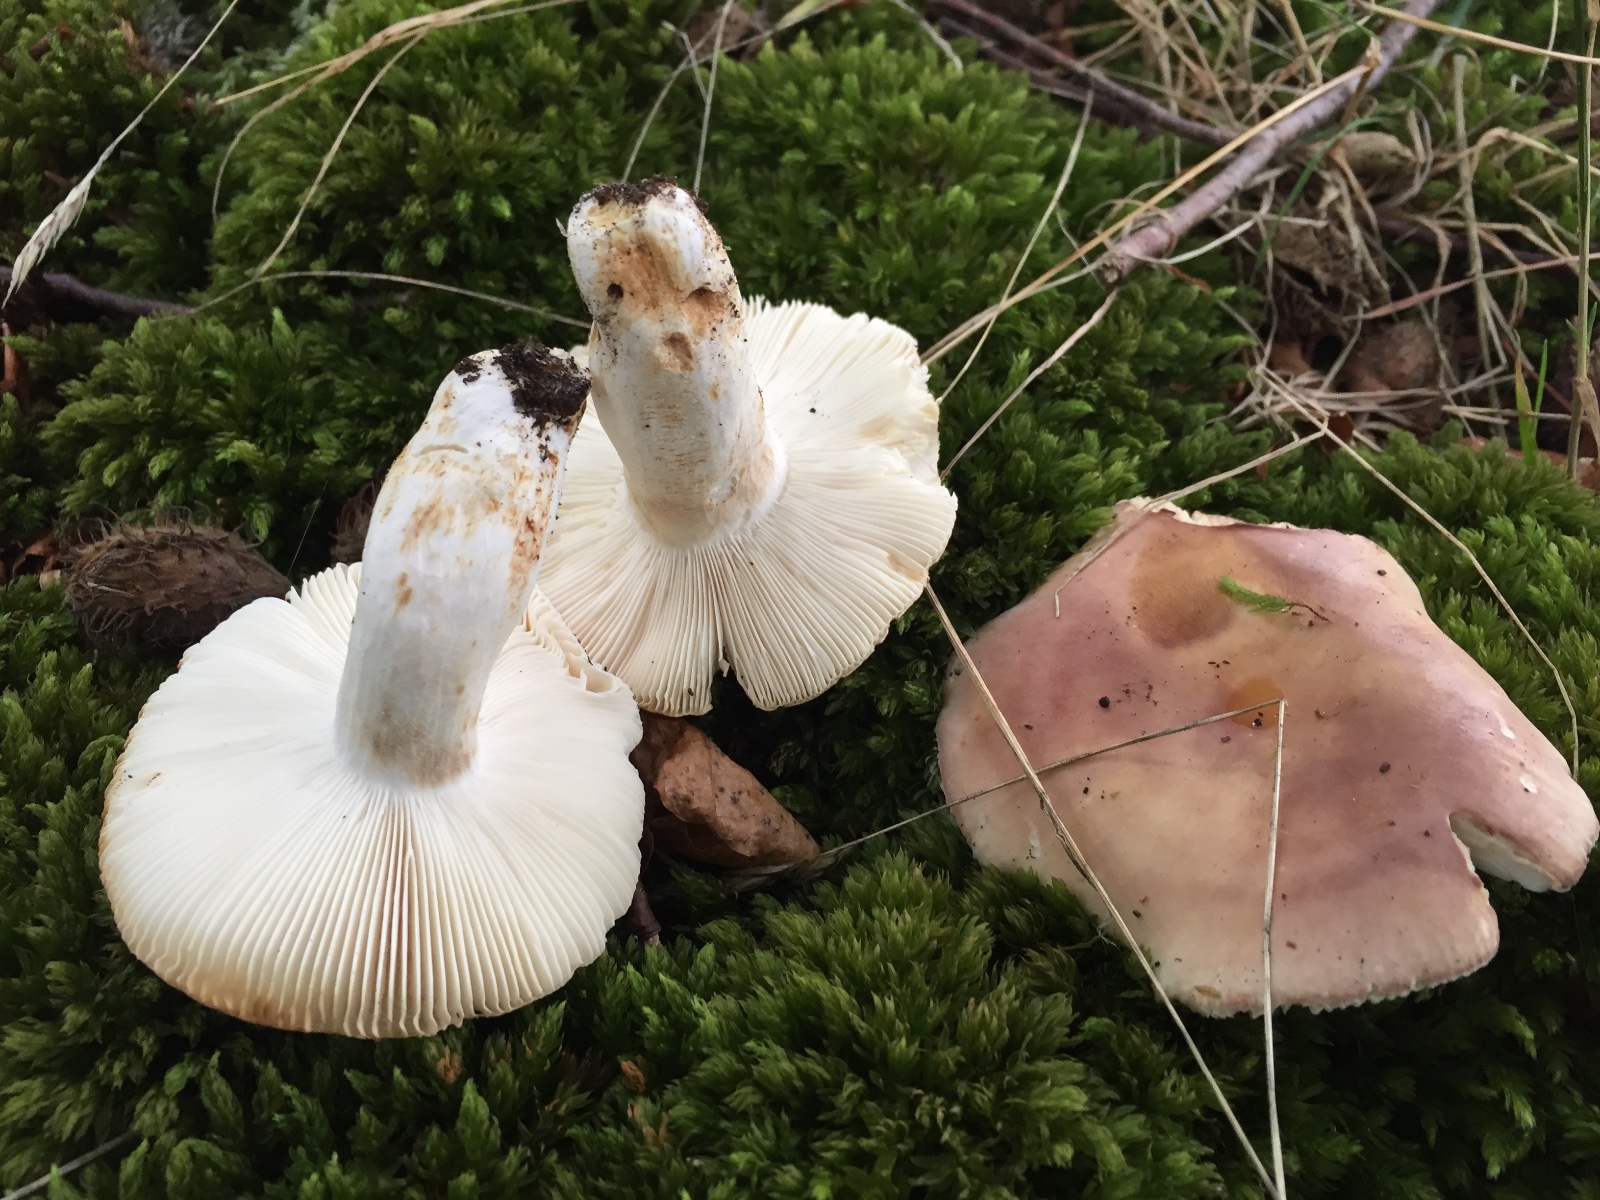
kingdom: Fungi
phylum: Basidiomycota
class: Agaricomycetes
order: Russulales
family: Russulaceae
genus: Russula
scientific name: Russula vesca
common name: spiselig skørhat
